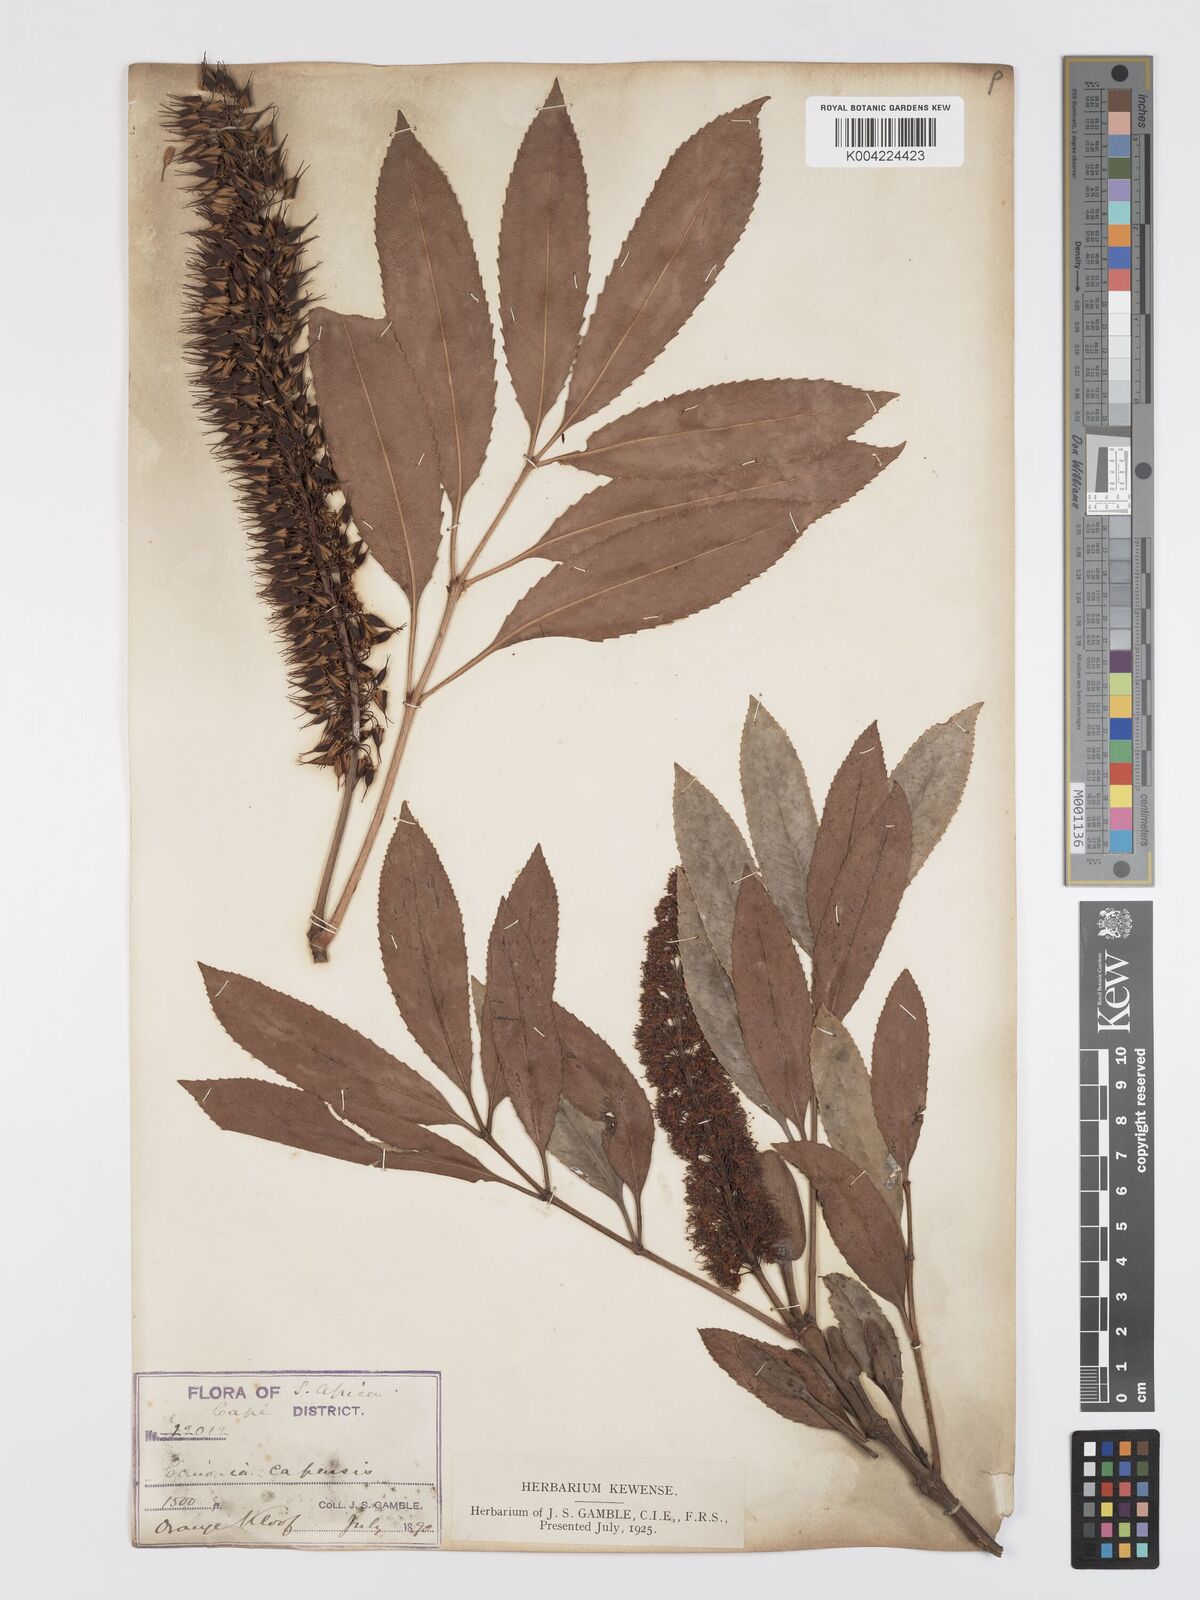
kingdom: Plantae
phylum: Tracheophyta
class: Magnoliopsida
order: Oxalidales
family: Cunoniaceae
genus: Cunonia
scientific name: Cunonia capensis
